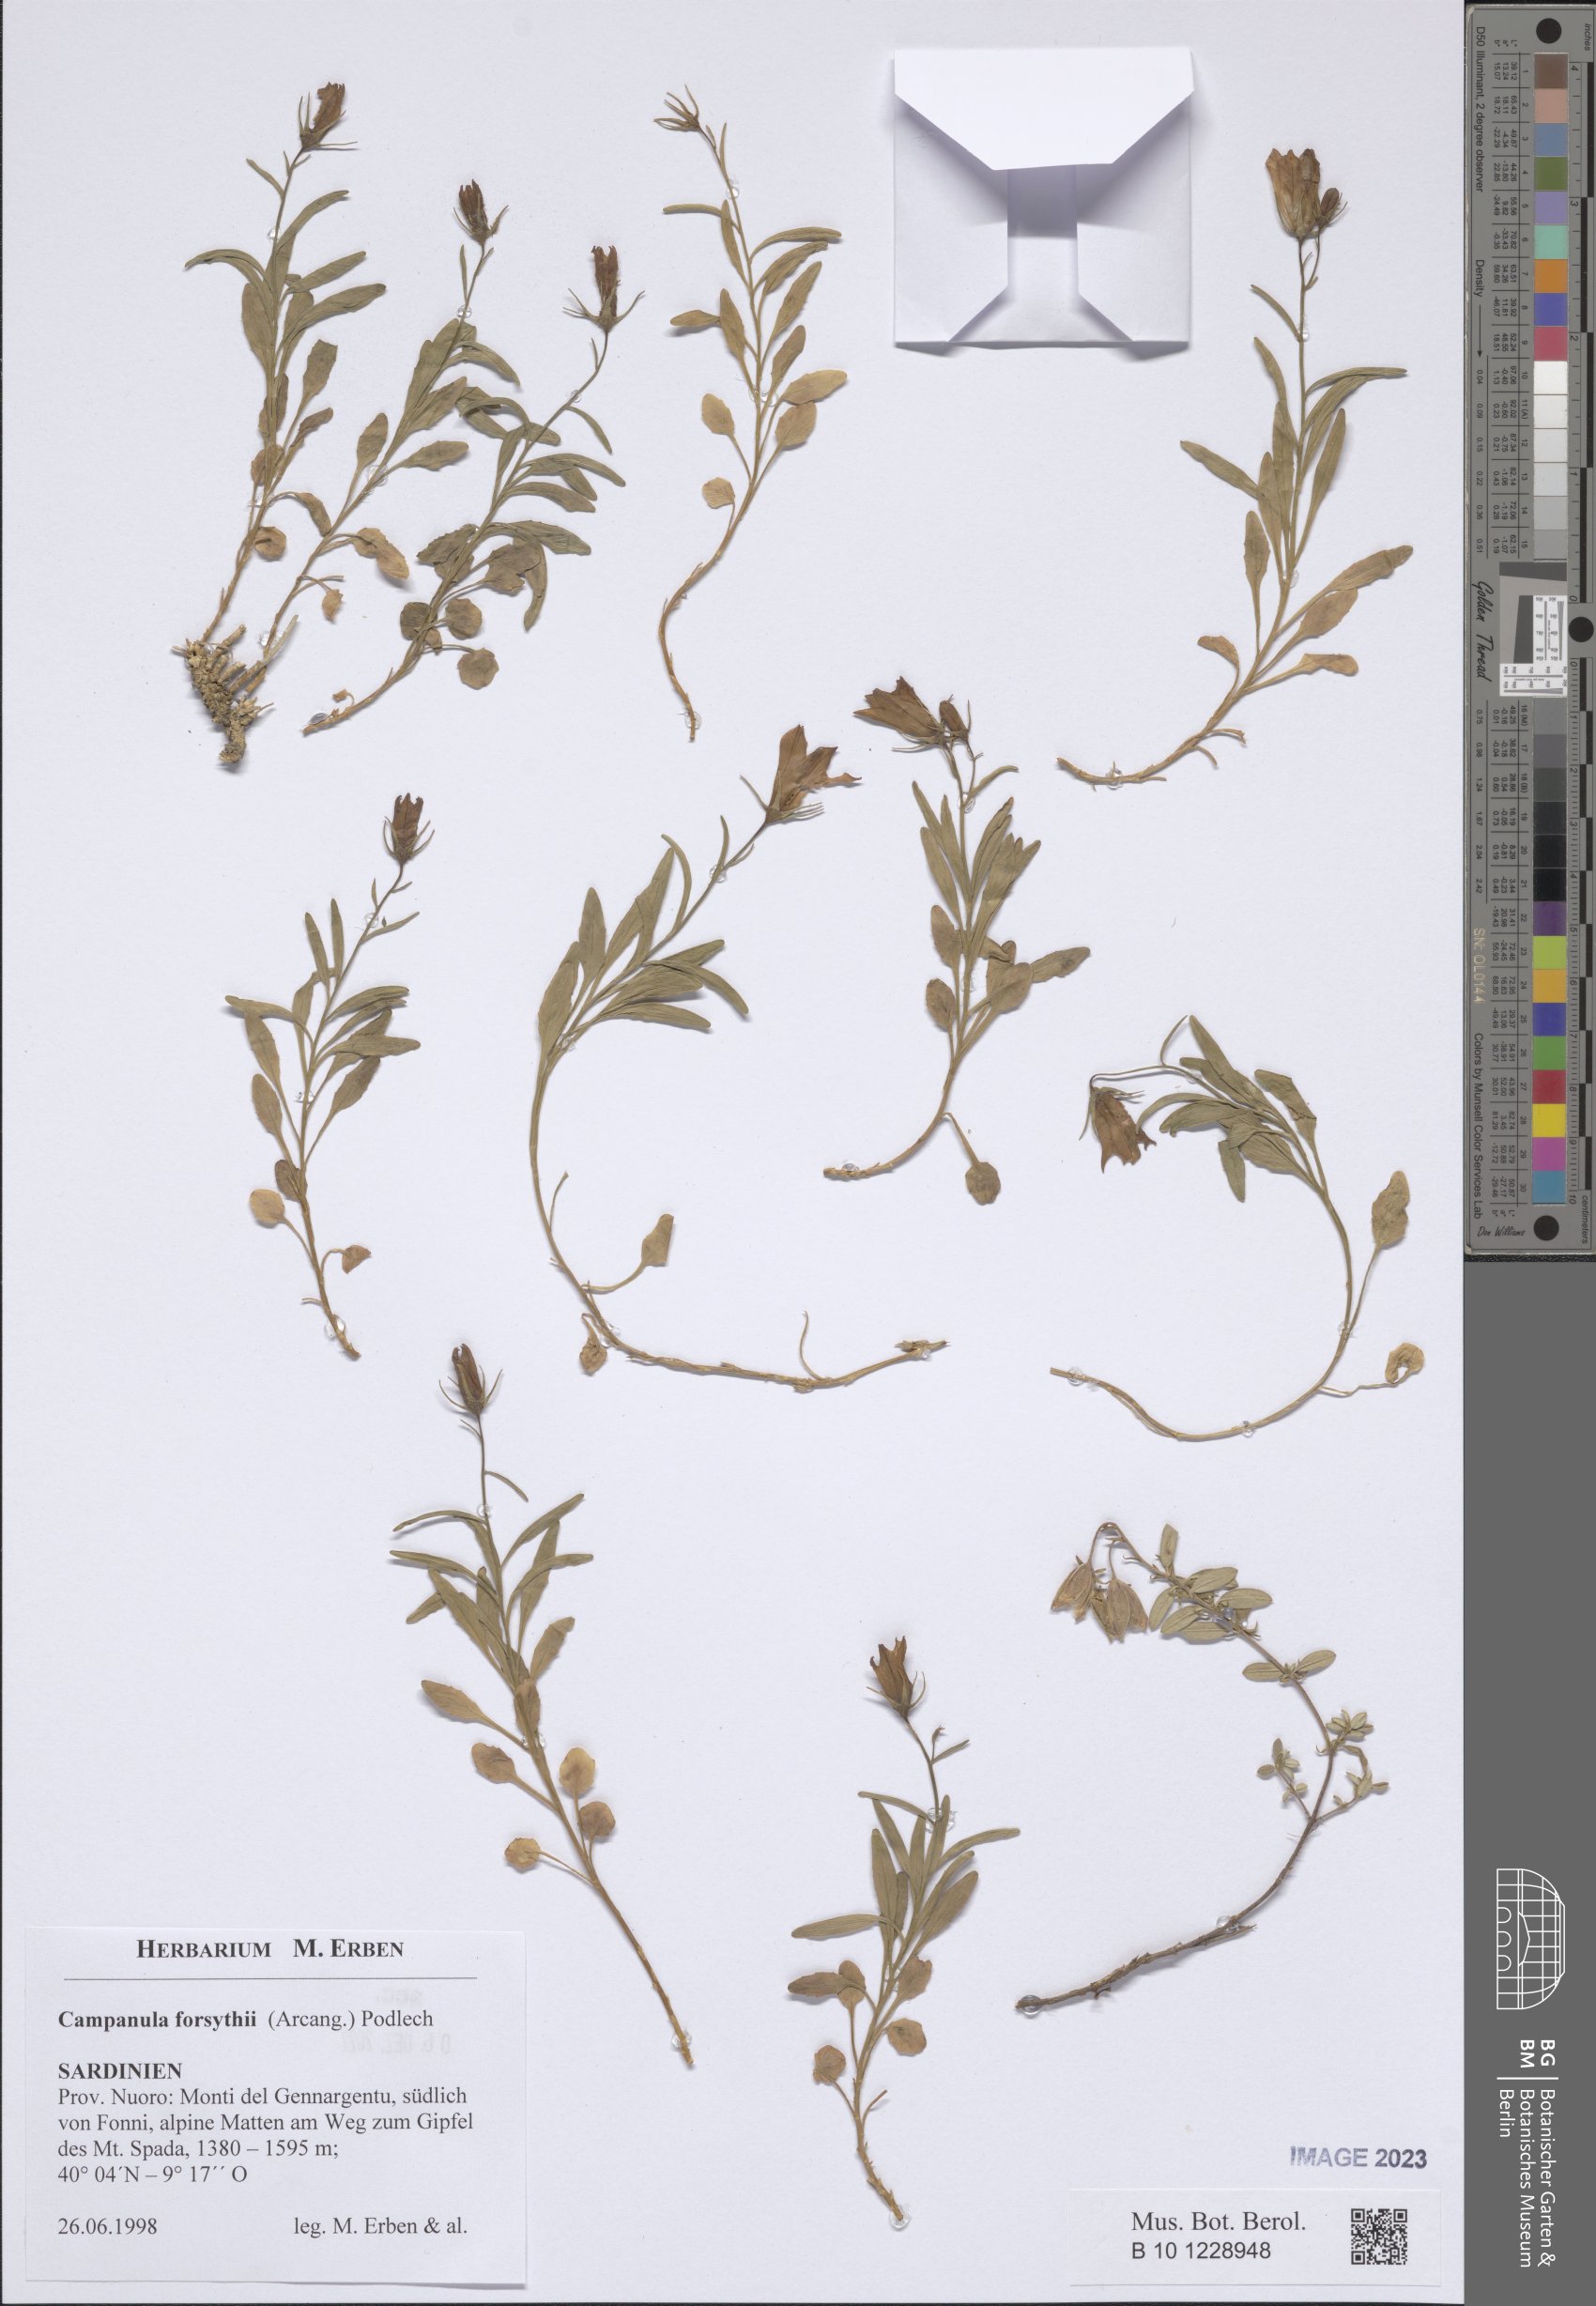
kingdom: Plantae
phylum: Tracheophyta
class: Magnoliopsida
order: Asterales
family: Campanulaceae
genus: Campanula
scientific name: Campanula forsythii
